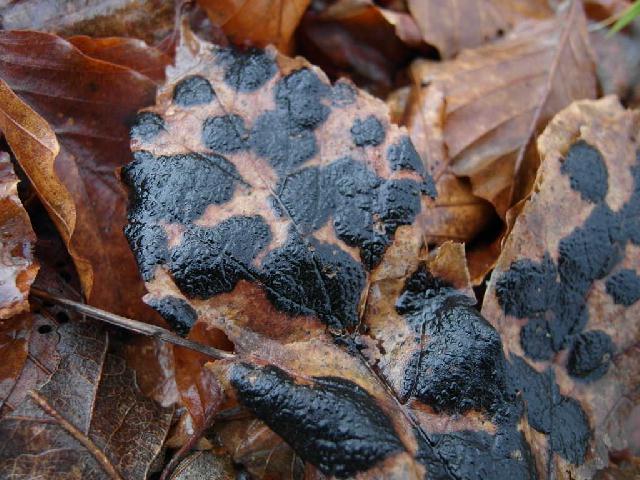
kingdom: Fungi
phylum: Ascomycota
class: Leotiomycetes
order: Rhytismatales
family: Rhytismataceae
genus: Rhytisma
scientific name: Rhytisma acerinum
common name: ahorn-rynkeplet
